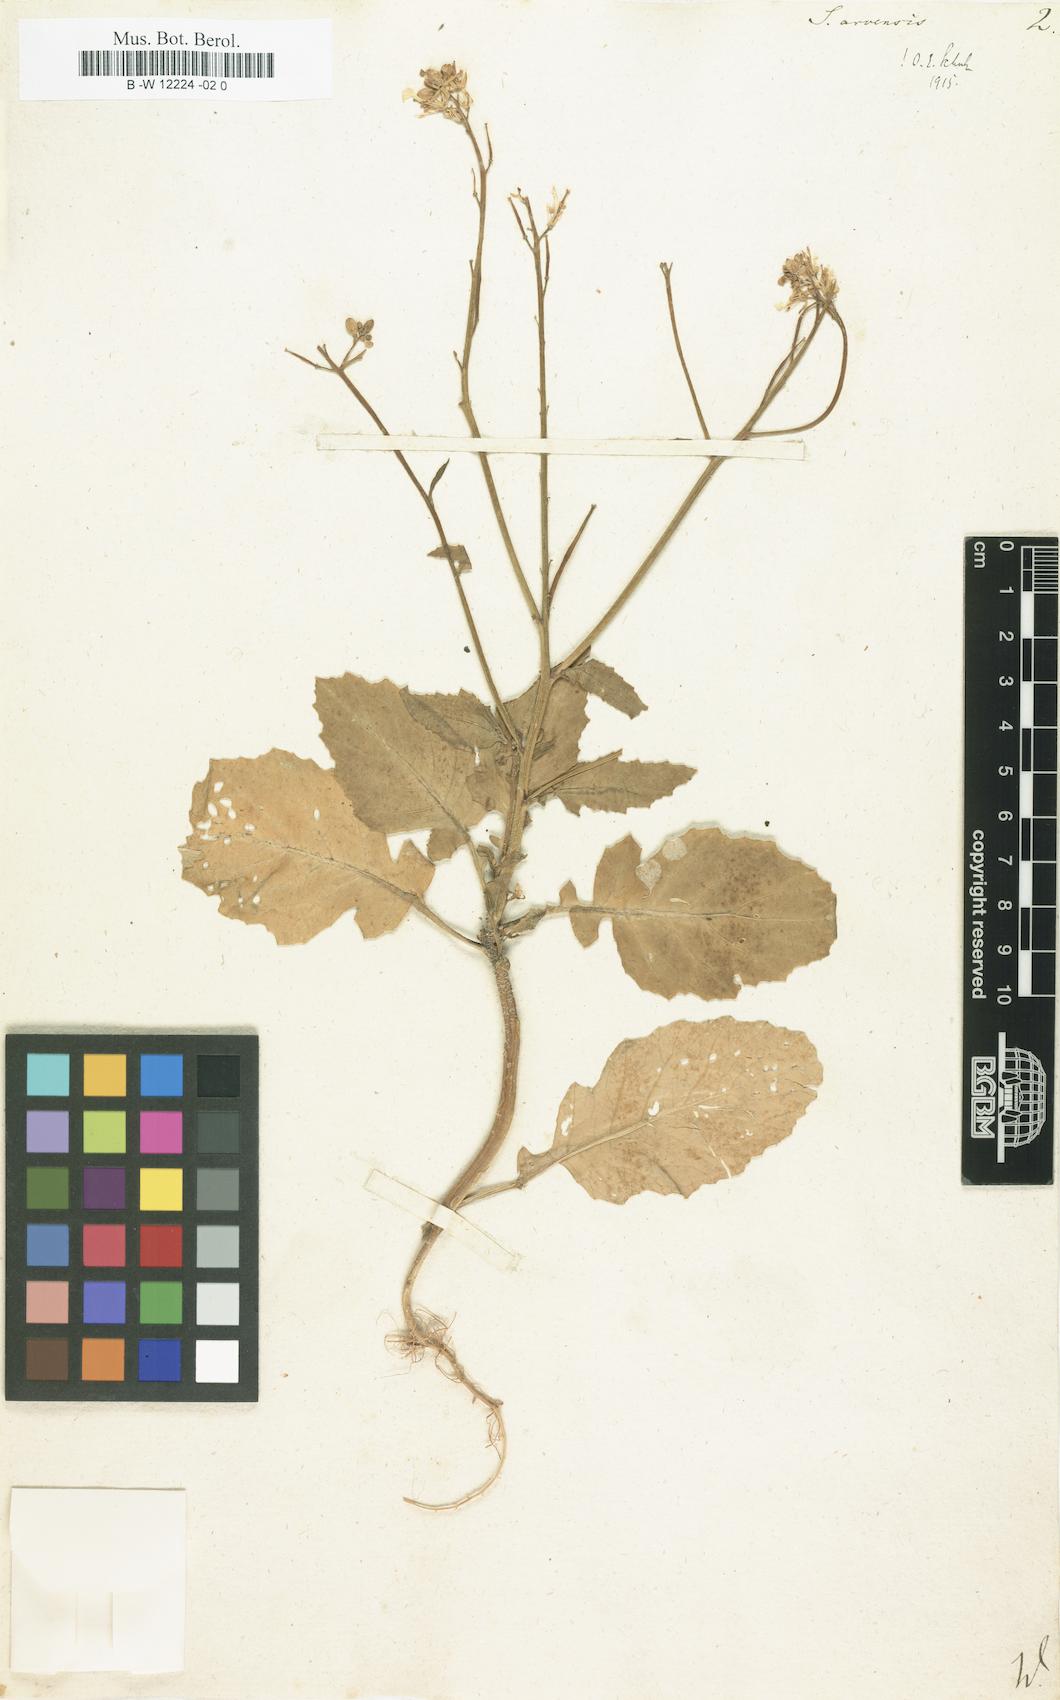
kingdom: Plantae
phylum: Tracheophyta
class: Magnoliopsida
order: Brassicales
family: Brassicaceae
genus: Sinapis
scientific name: Sinapis arvensis
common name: Charlock
